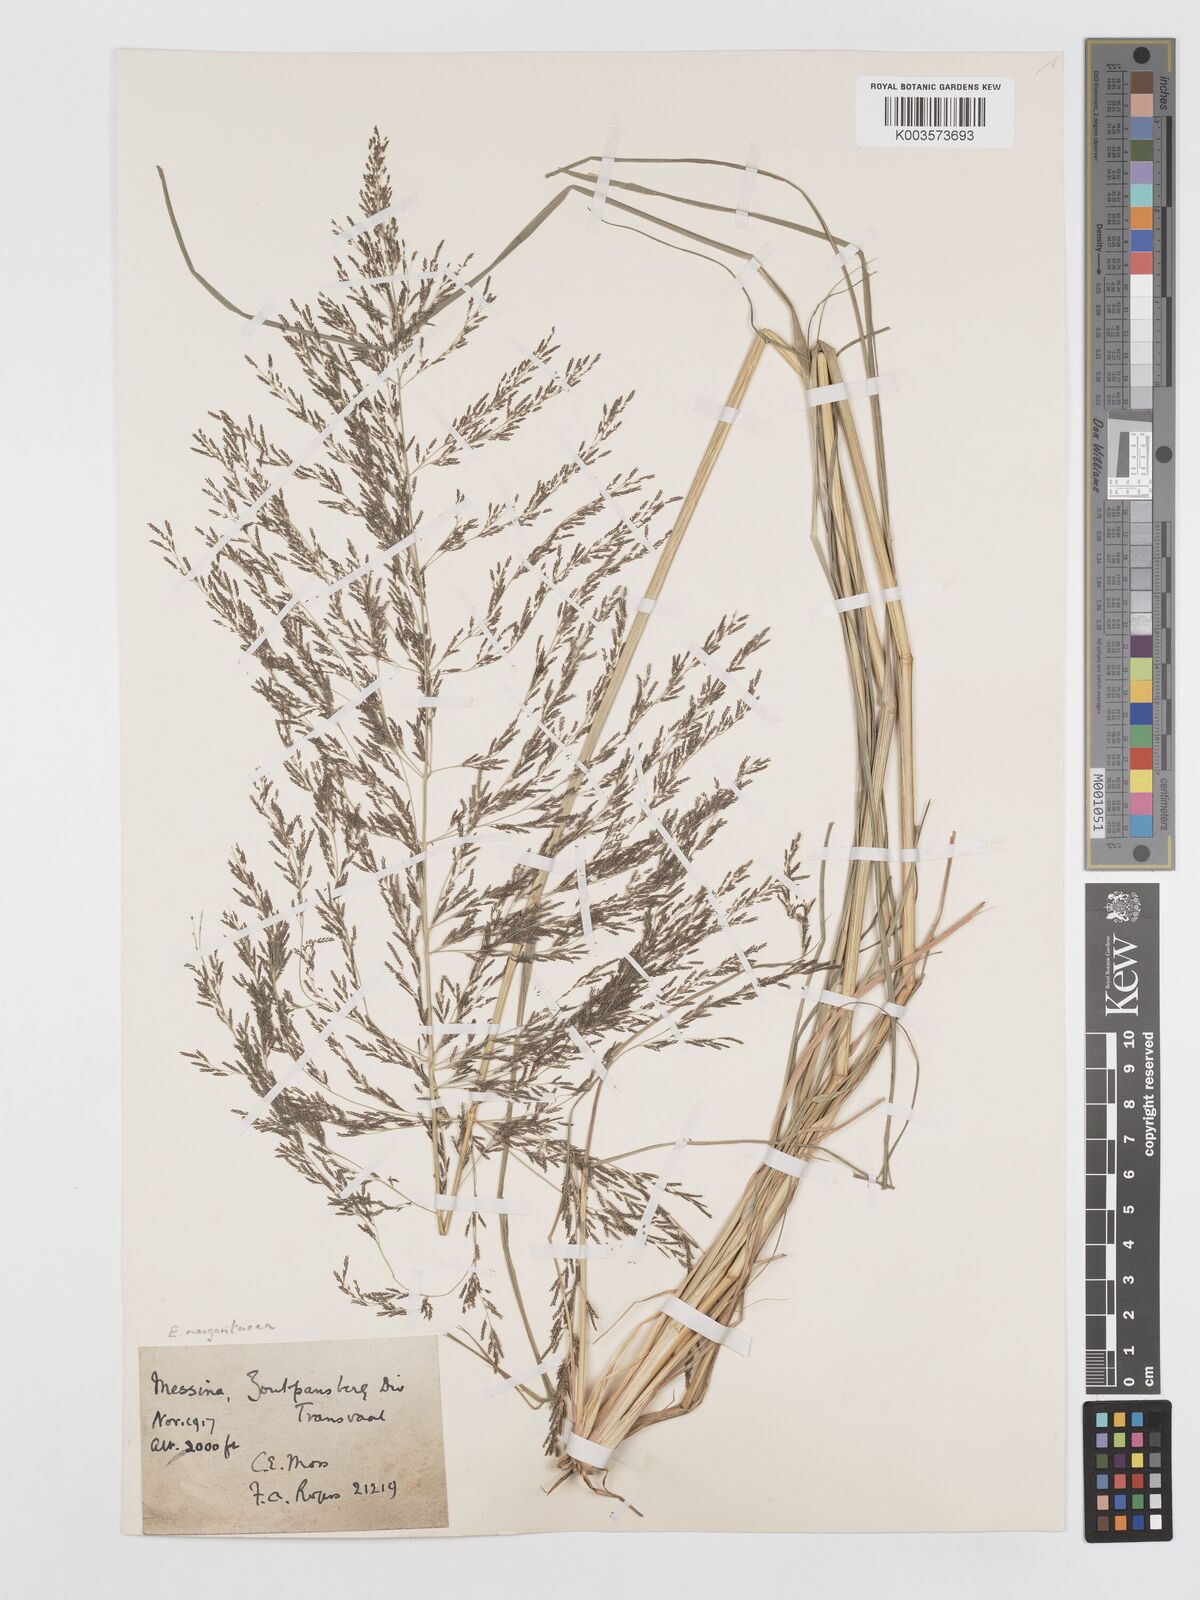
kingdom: Plantae
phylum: Tracheophyta
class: Liliopsida
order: Poales
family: Poaceae
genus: Eragrostis
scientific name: Eragrostis rotifer
